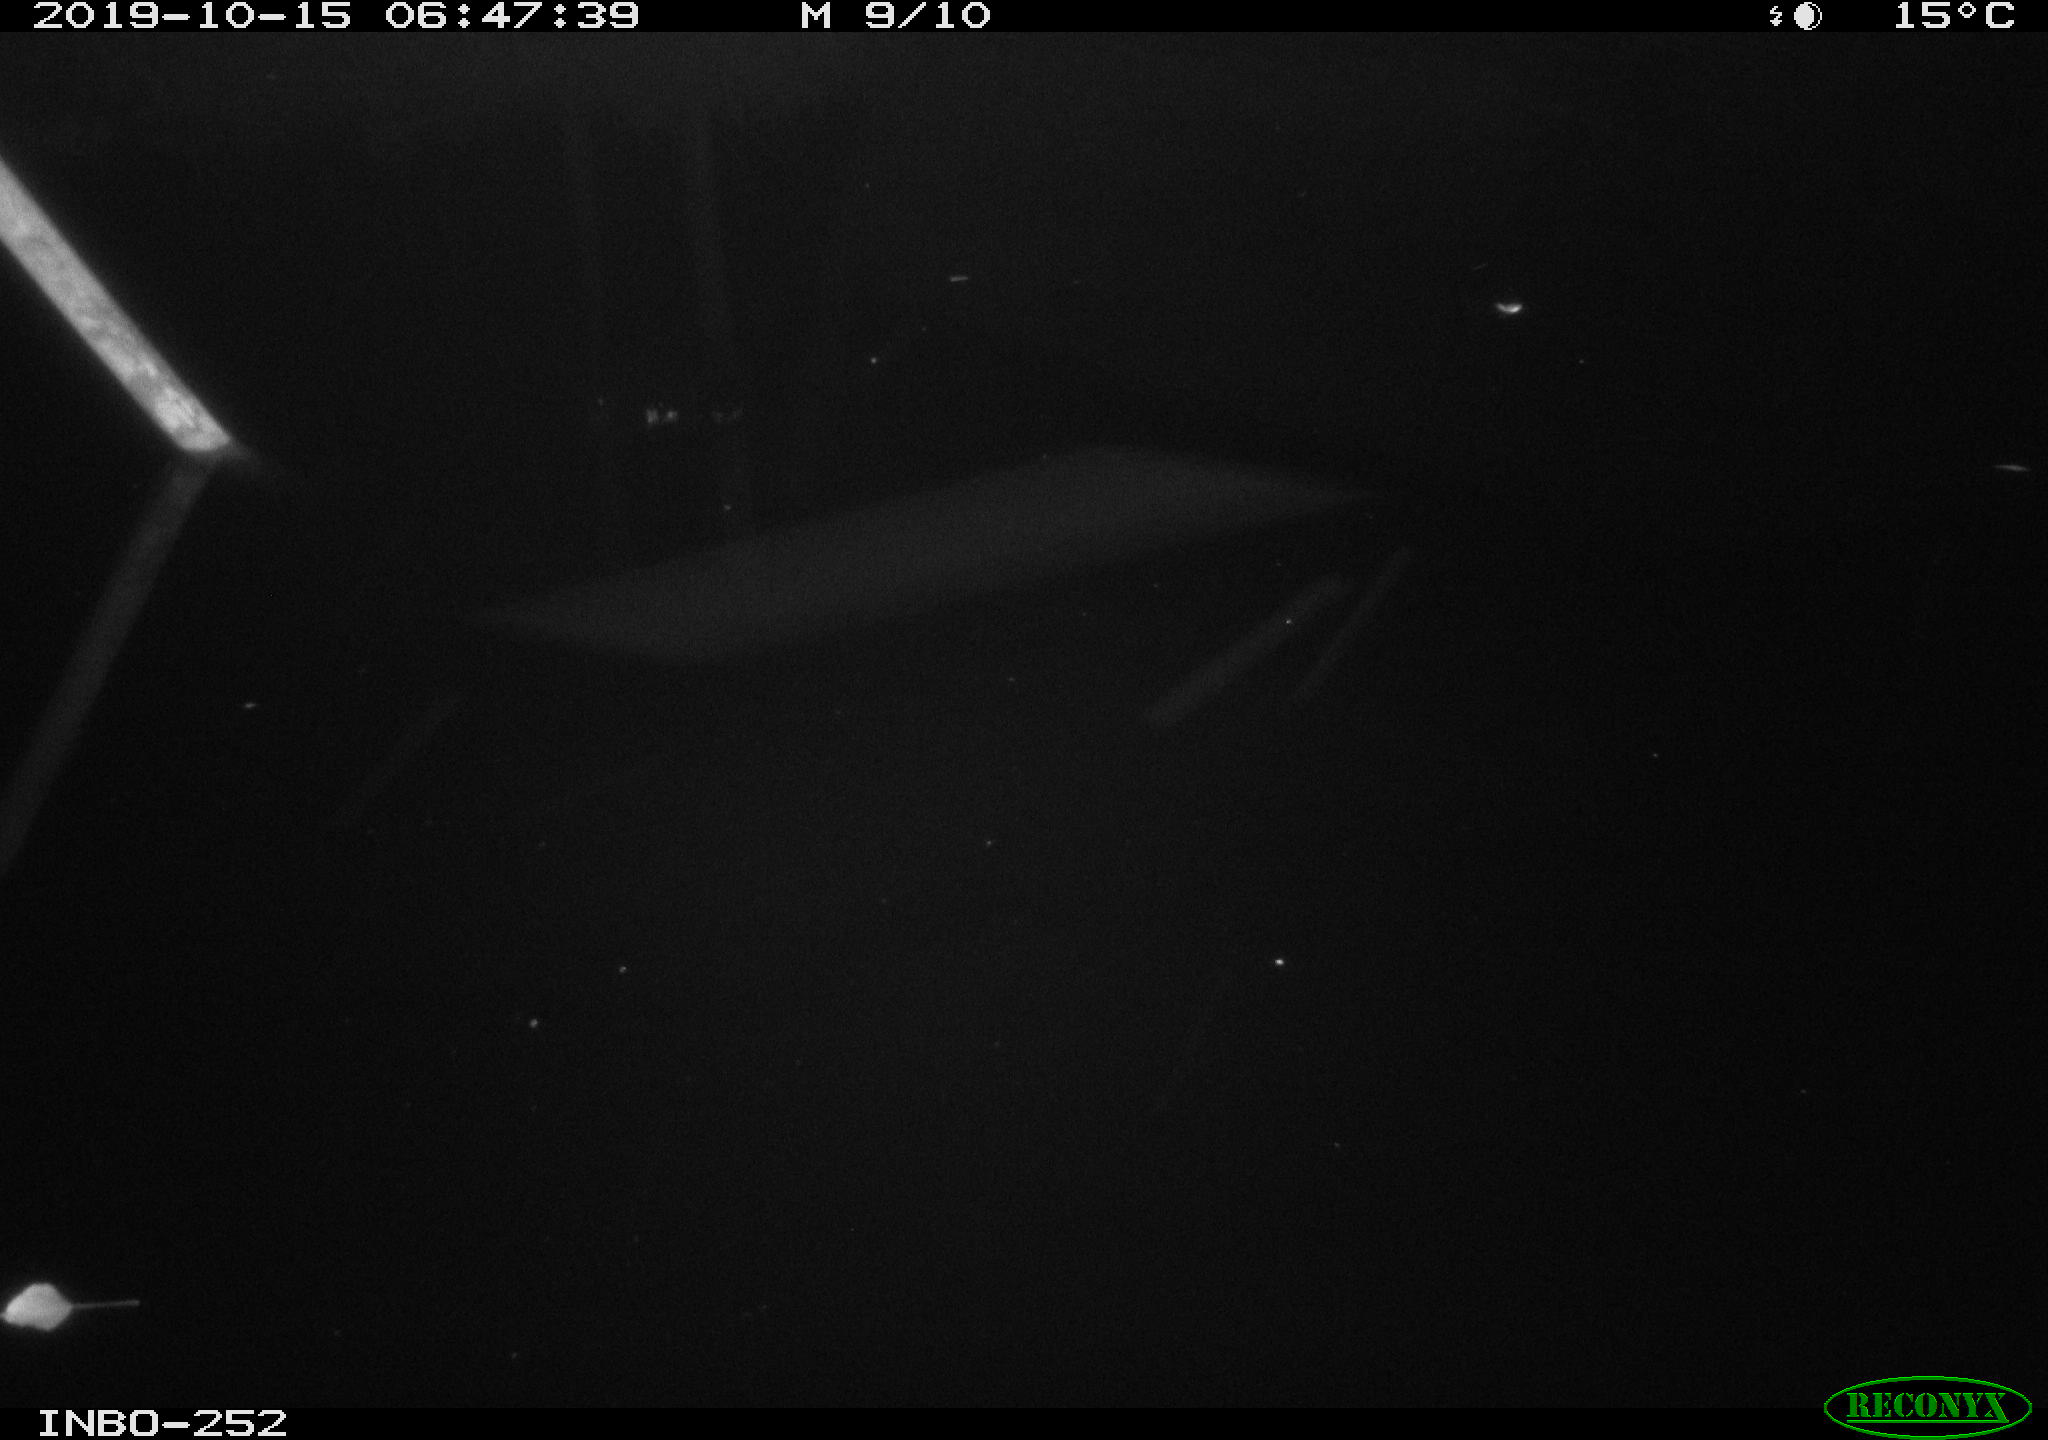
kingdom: Animalia
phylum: Chordata
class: Aves
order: Anseriformes
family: Anatidae
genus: Anas
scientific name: Anas platyrhynchos
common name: Mallard
